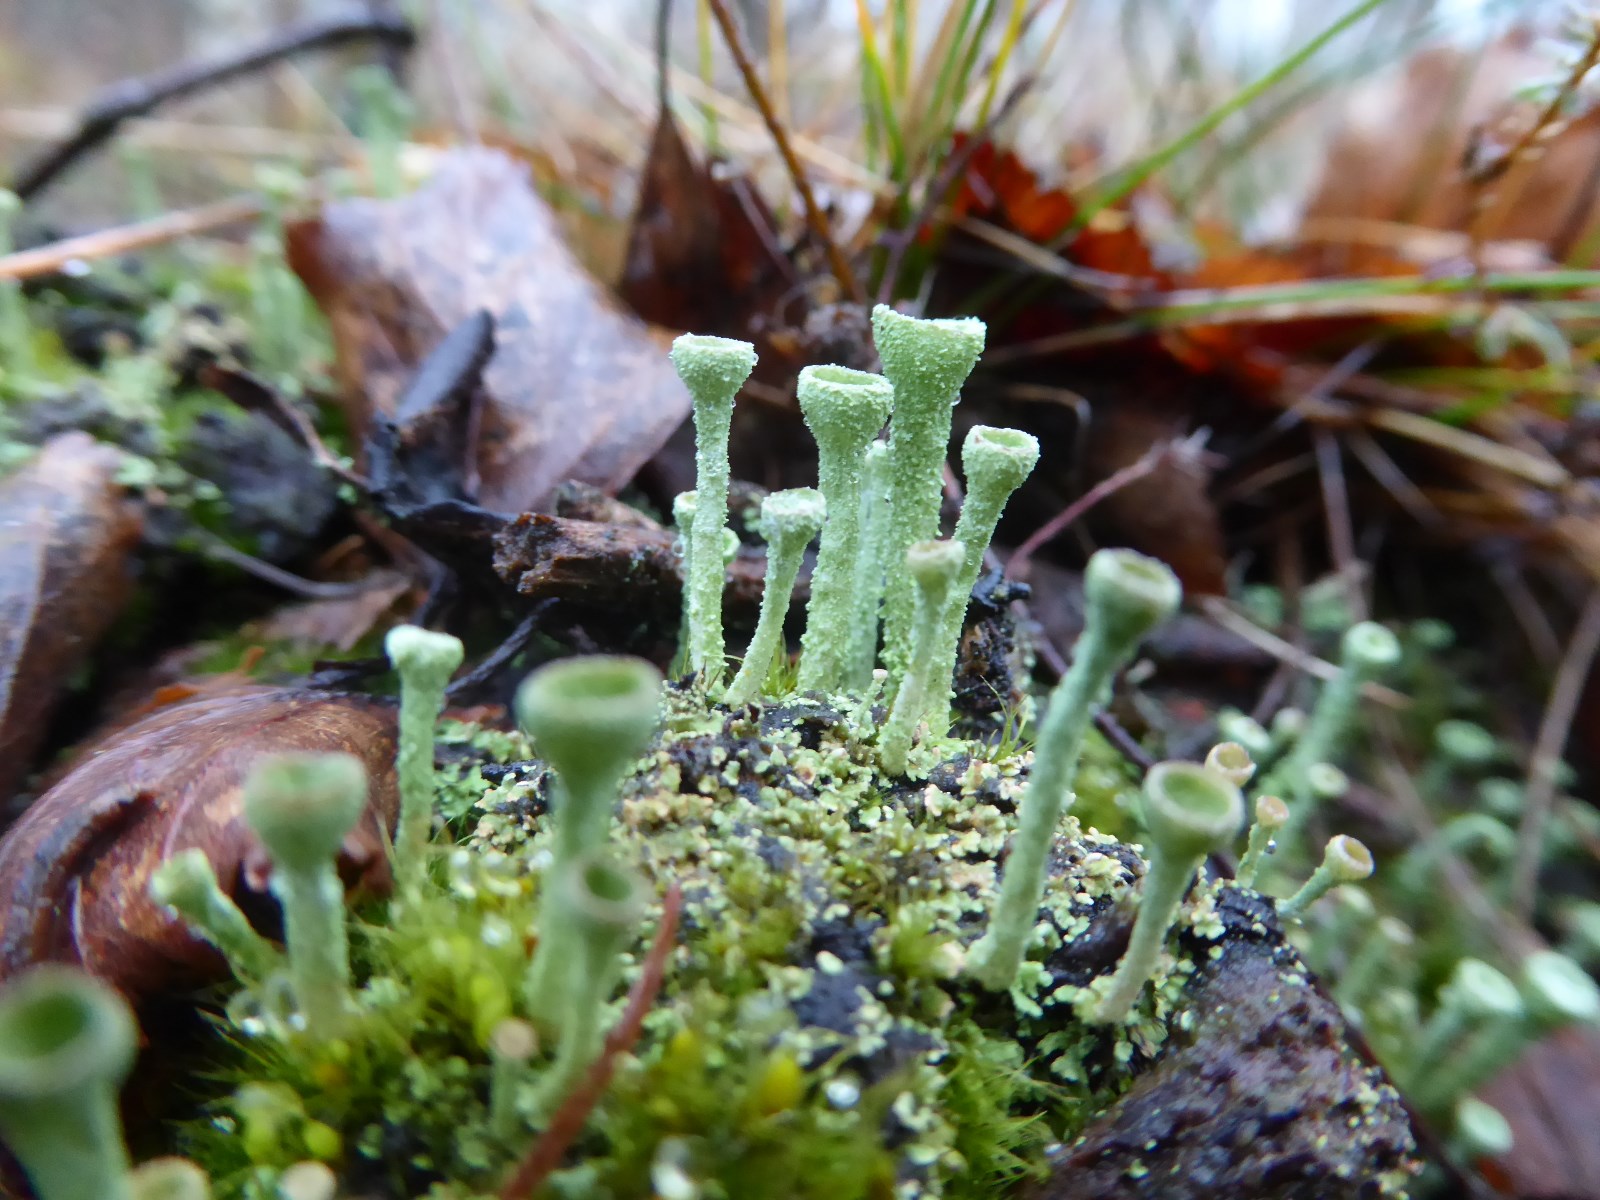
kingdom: Fungi
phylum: Ascomycota
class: Lecanoromycetes
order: Lecanorales
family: Cladoniaceae
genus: Cladonia
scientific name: Cladonia fimbriata
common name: bleggrøn bægerlav
